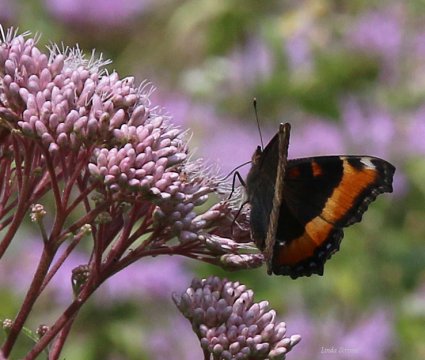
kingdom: Animalia
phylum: Arthropoda
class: Insecta
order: Lepidoptera
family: Nymphalidae
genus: Aglais
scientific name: Aglais milberti
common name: Milbert's Tortoiseshell
